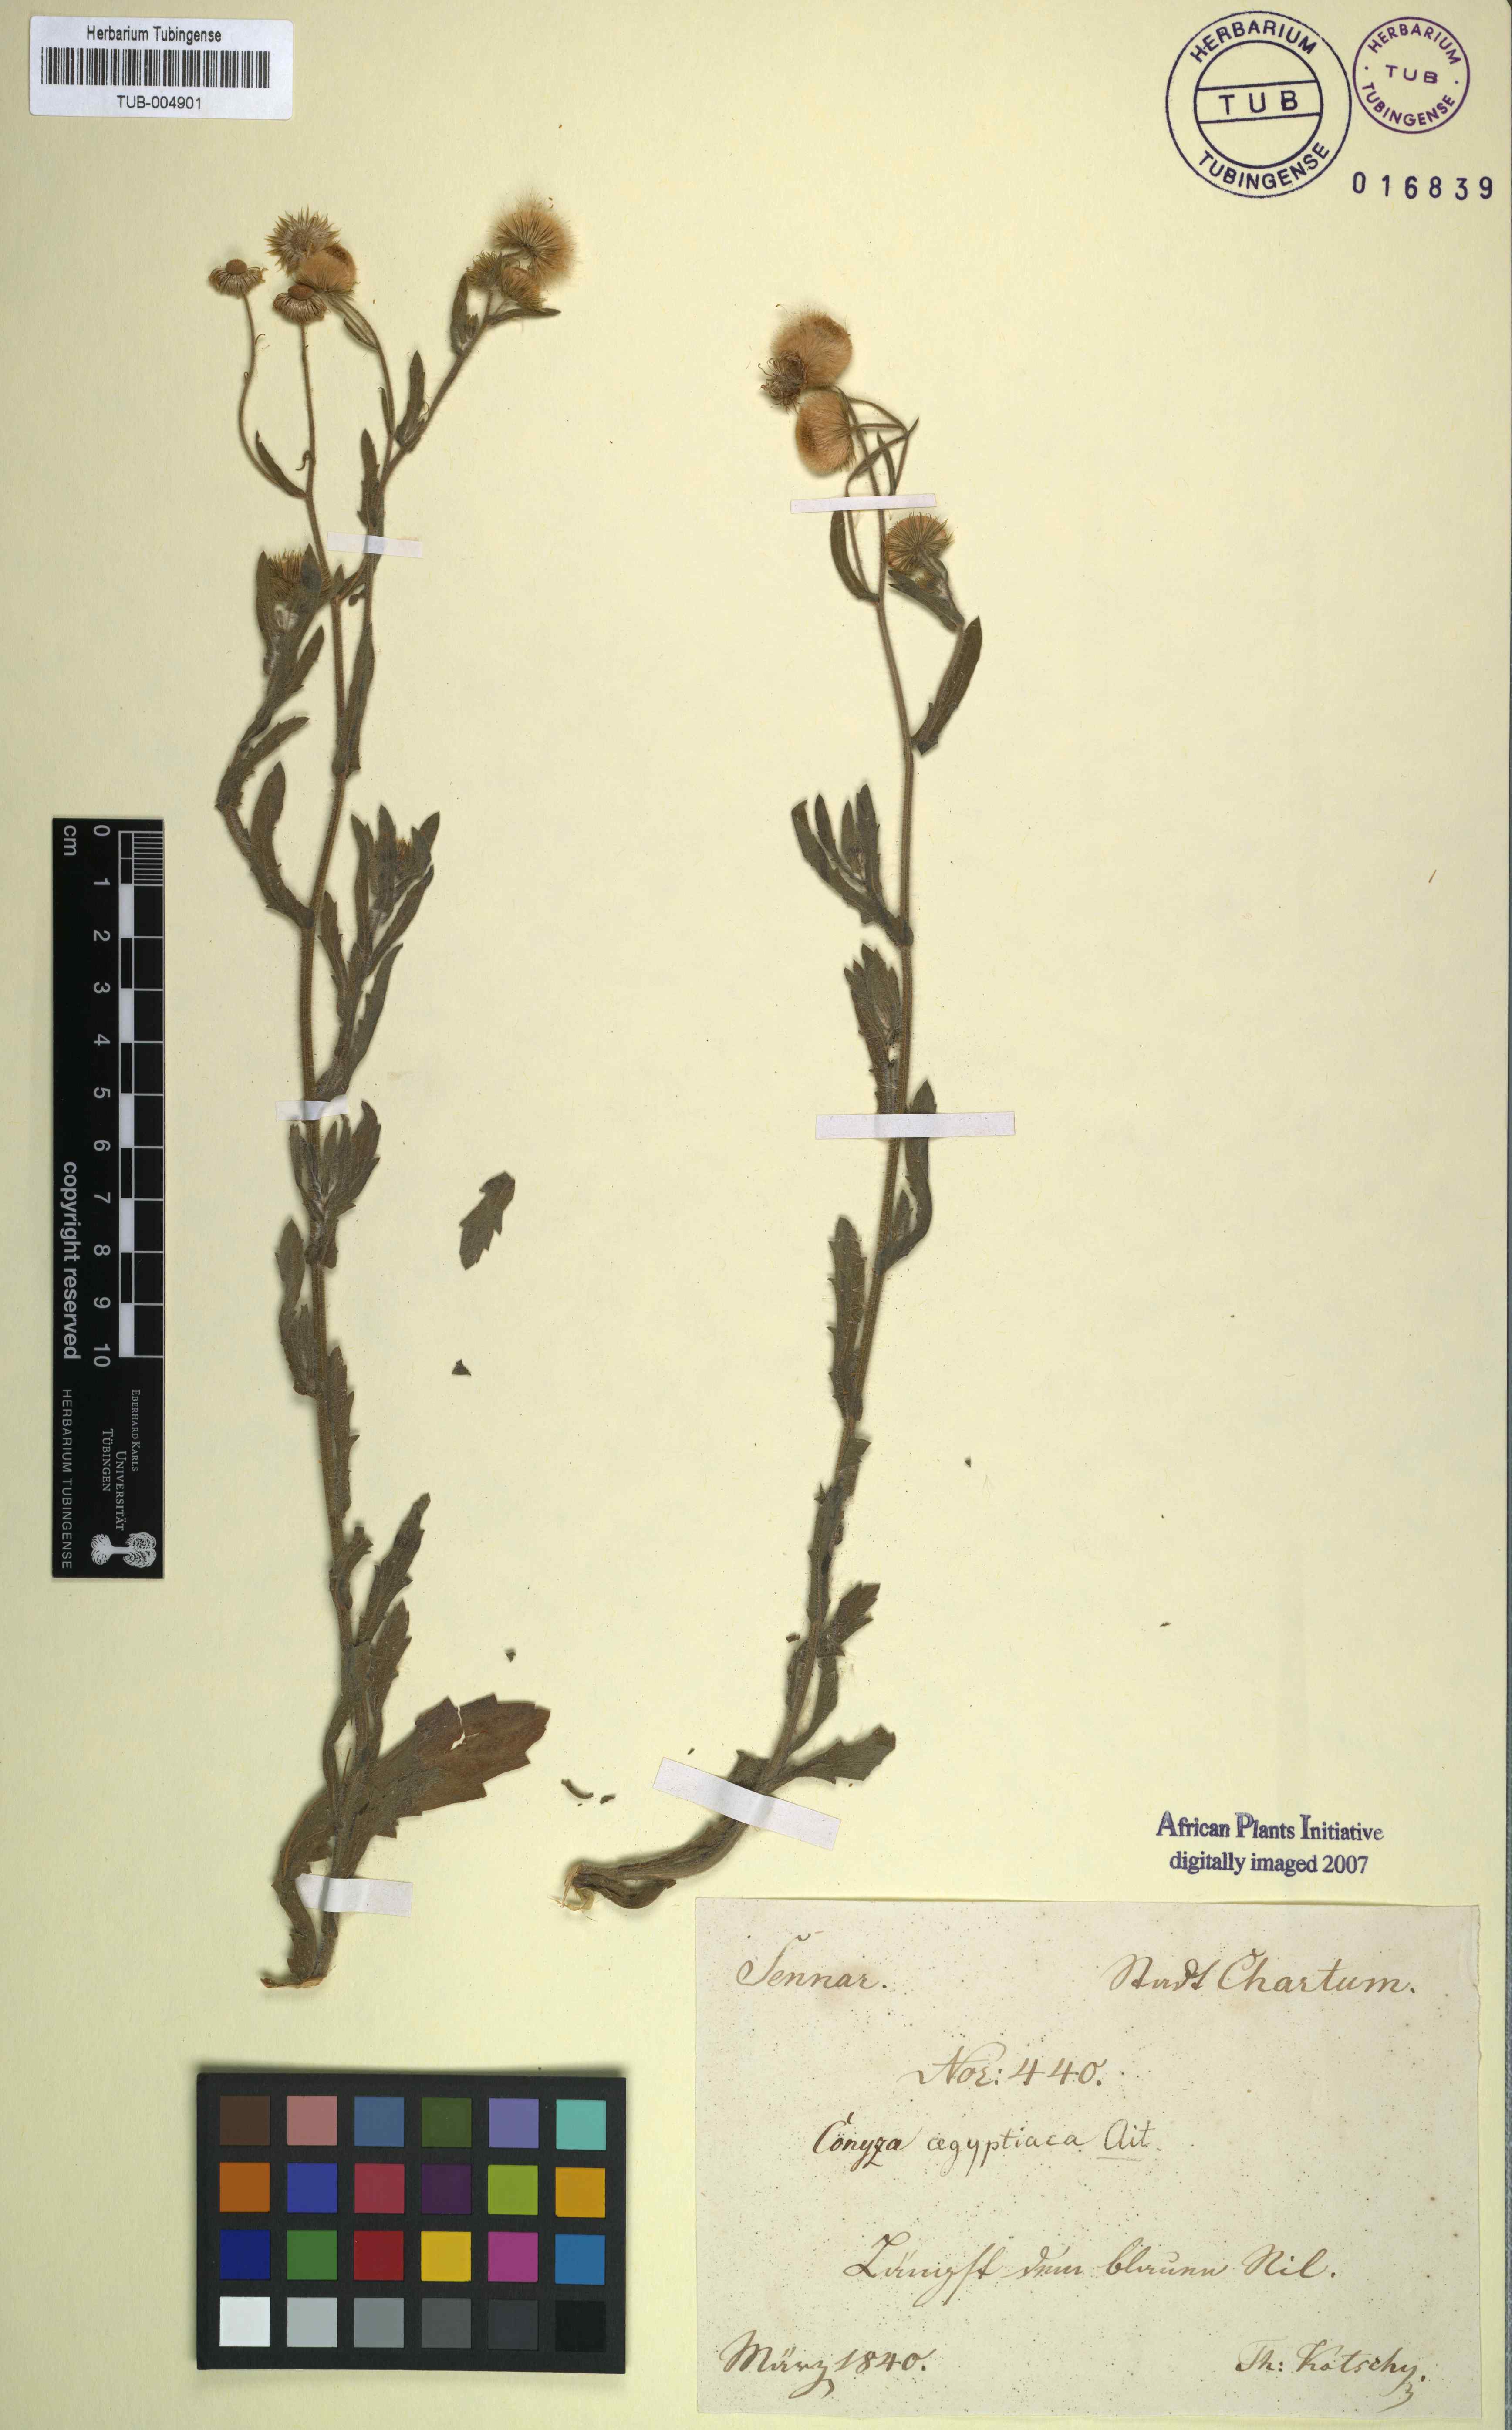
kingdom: Plantae
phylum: Tracheophyta
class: Magnoliopsida
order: Asterales
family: Asteraceae
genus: Nidorella
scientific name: Nidorella aegyptiaca
